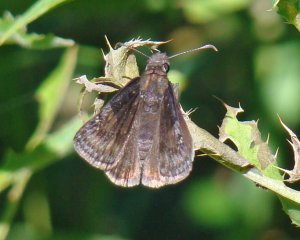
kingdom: Animalia
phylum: Arthropoda
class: Insecta
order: Lepidoptera
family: Hesperiidae
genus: Gesta
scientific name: Gesta
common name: Wild Indigo Duskywing
